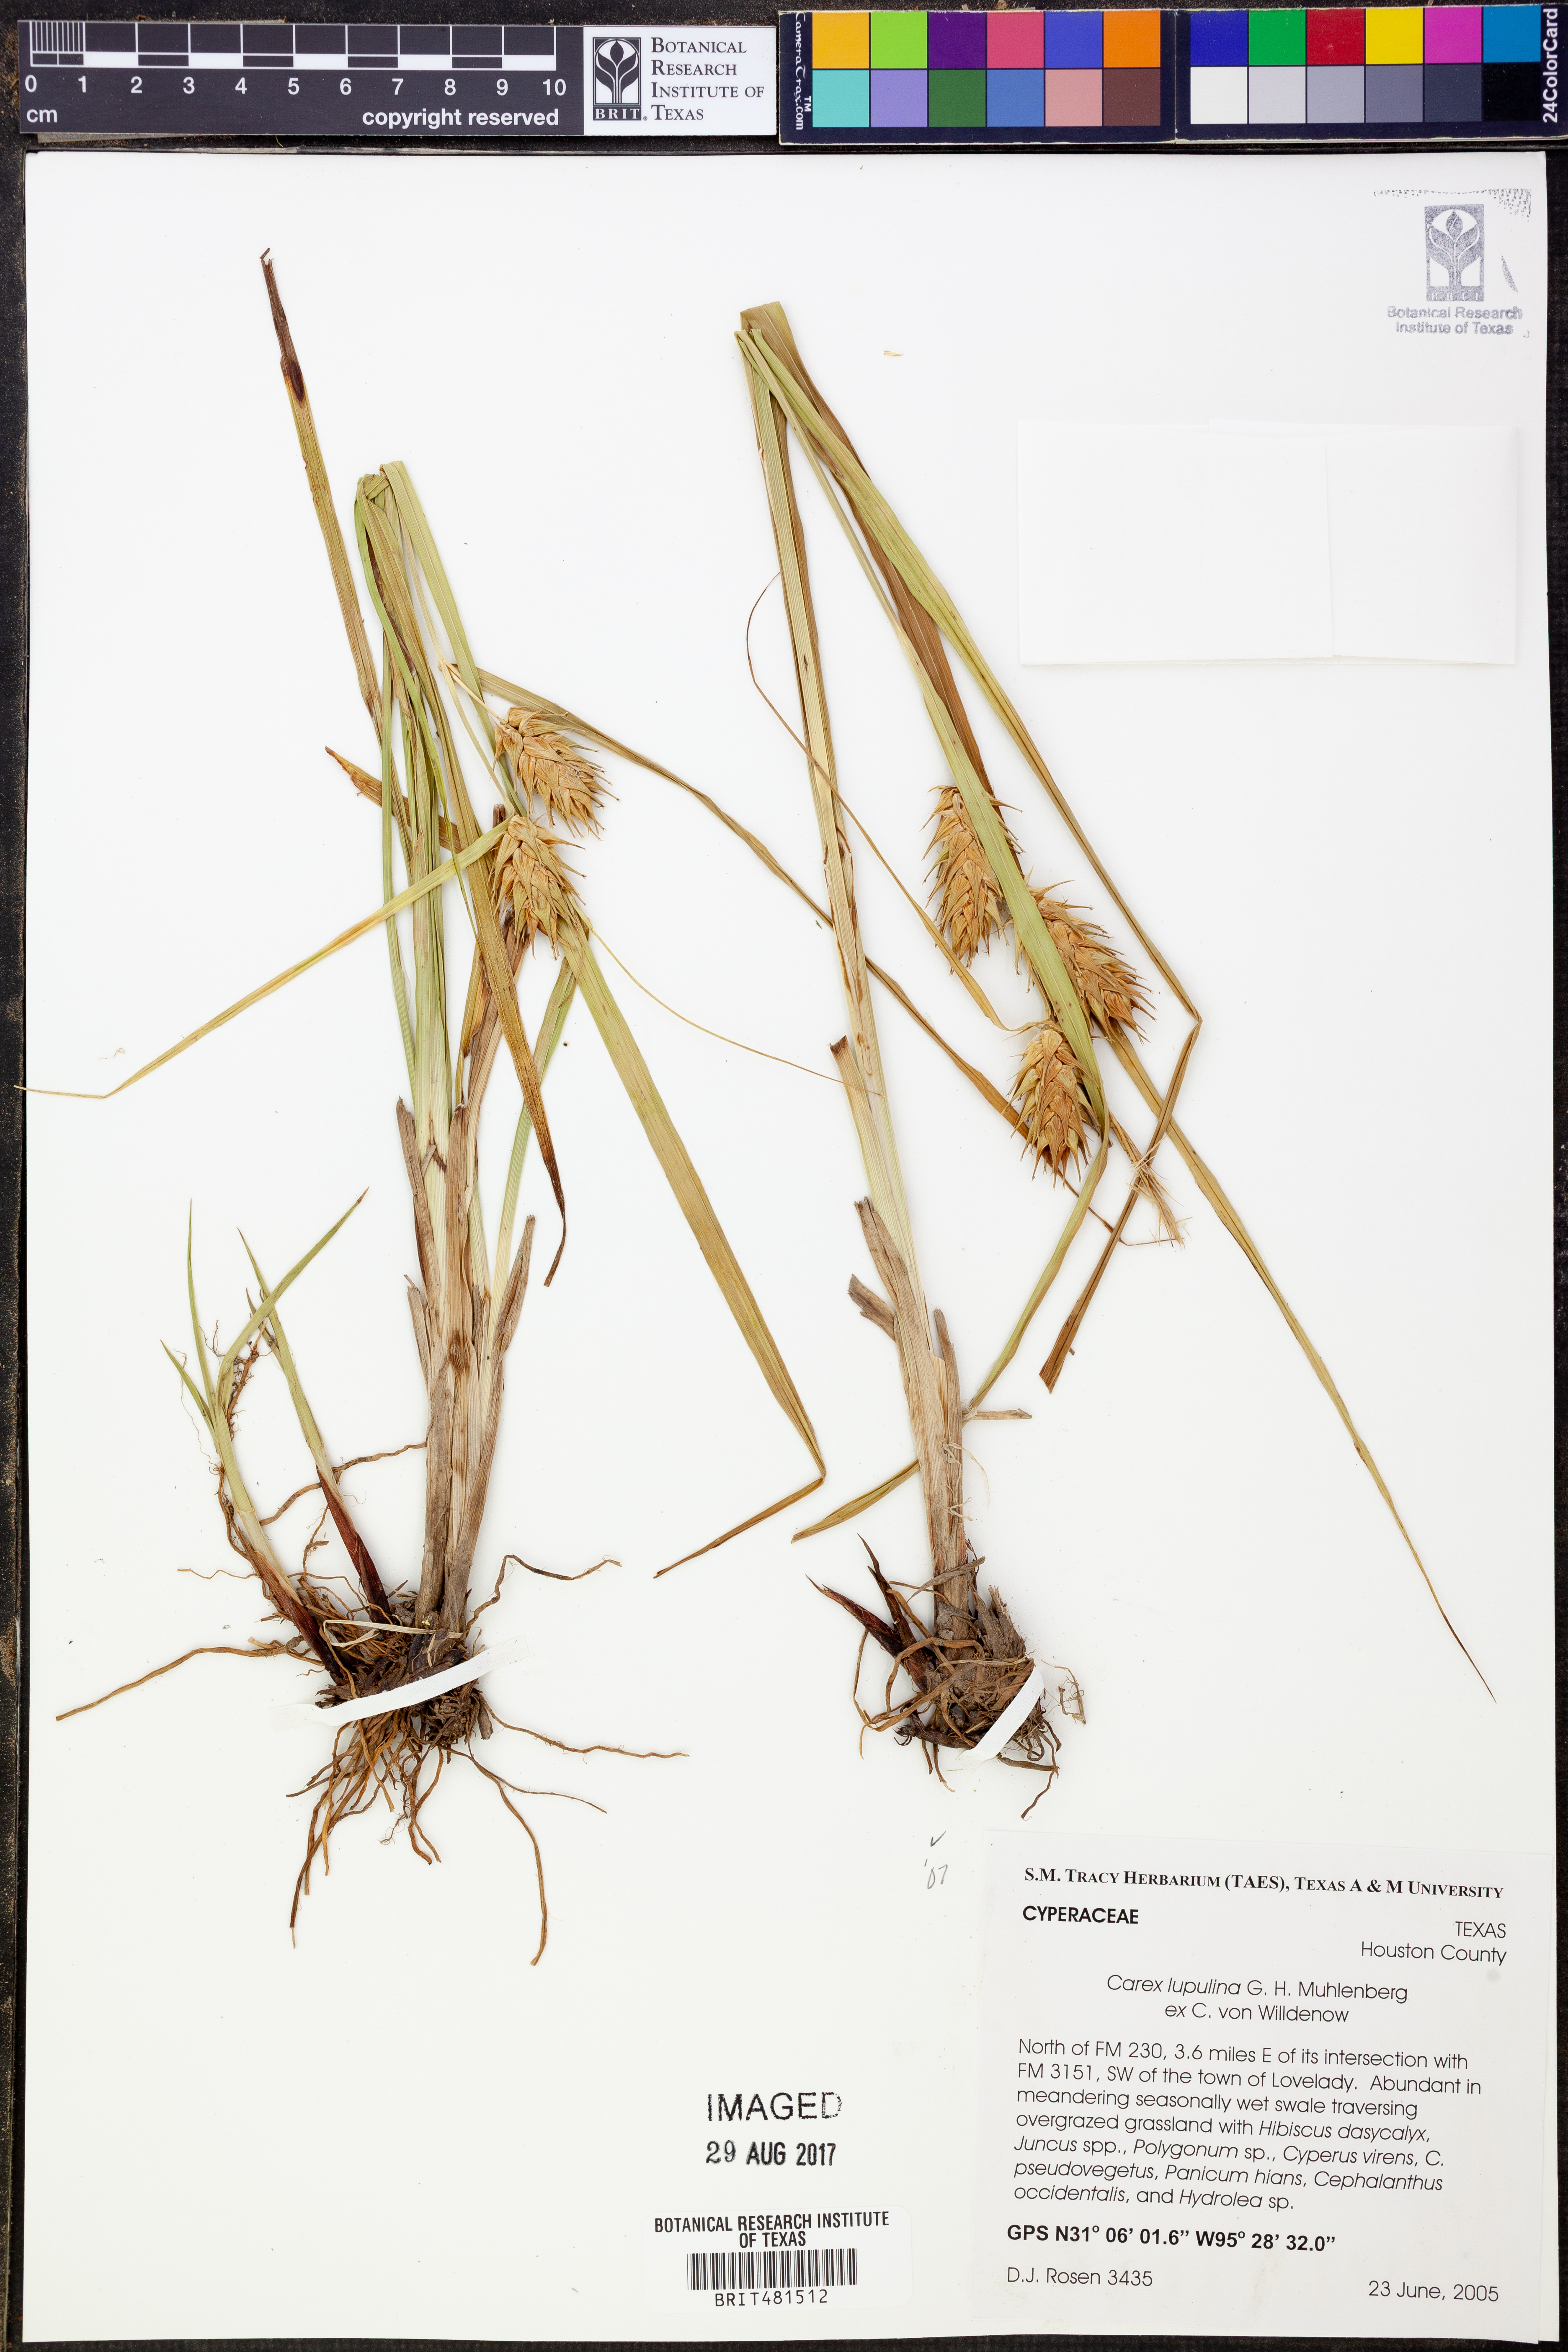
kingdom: Plantae
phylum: Tracheophyta
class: Liliopsida
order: Poales
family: Cyperaceae
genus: Carex
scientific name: Carex lupulina
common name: Hop sedge
